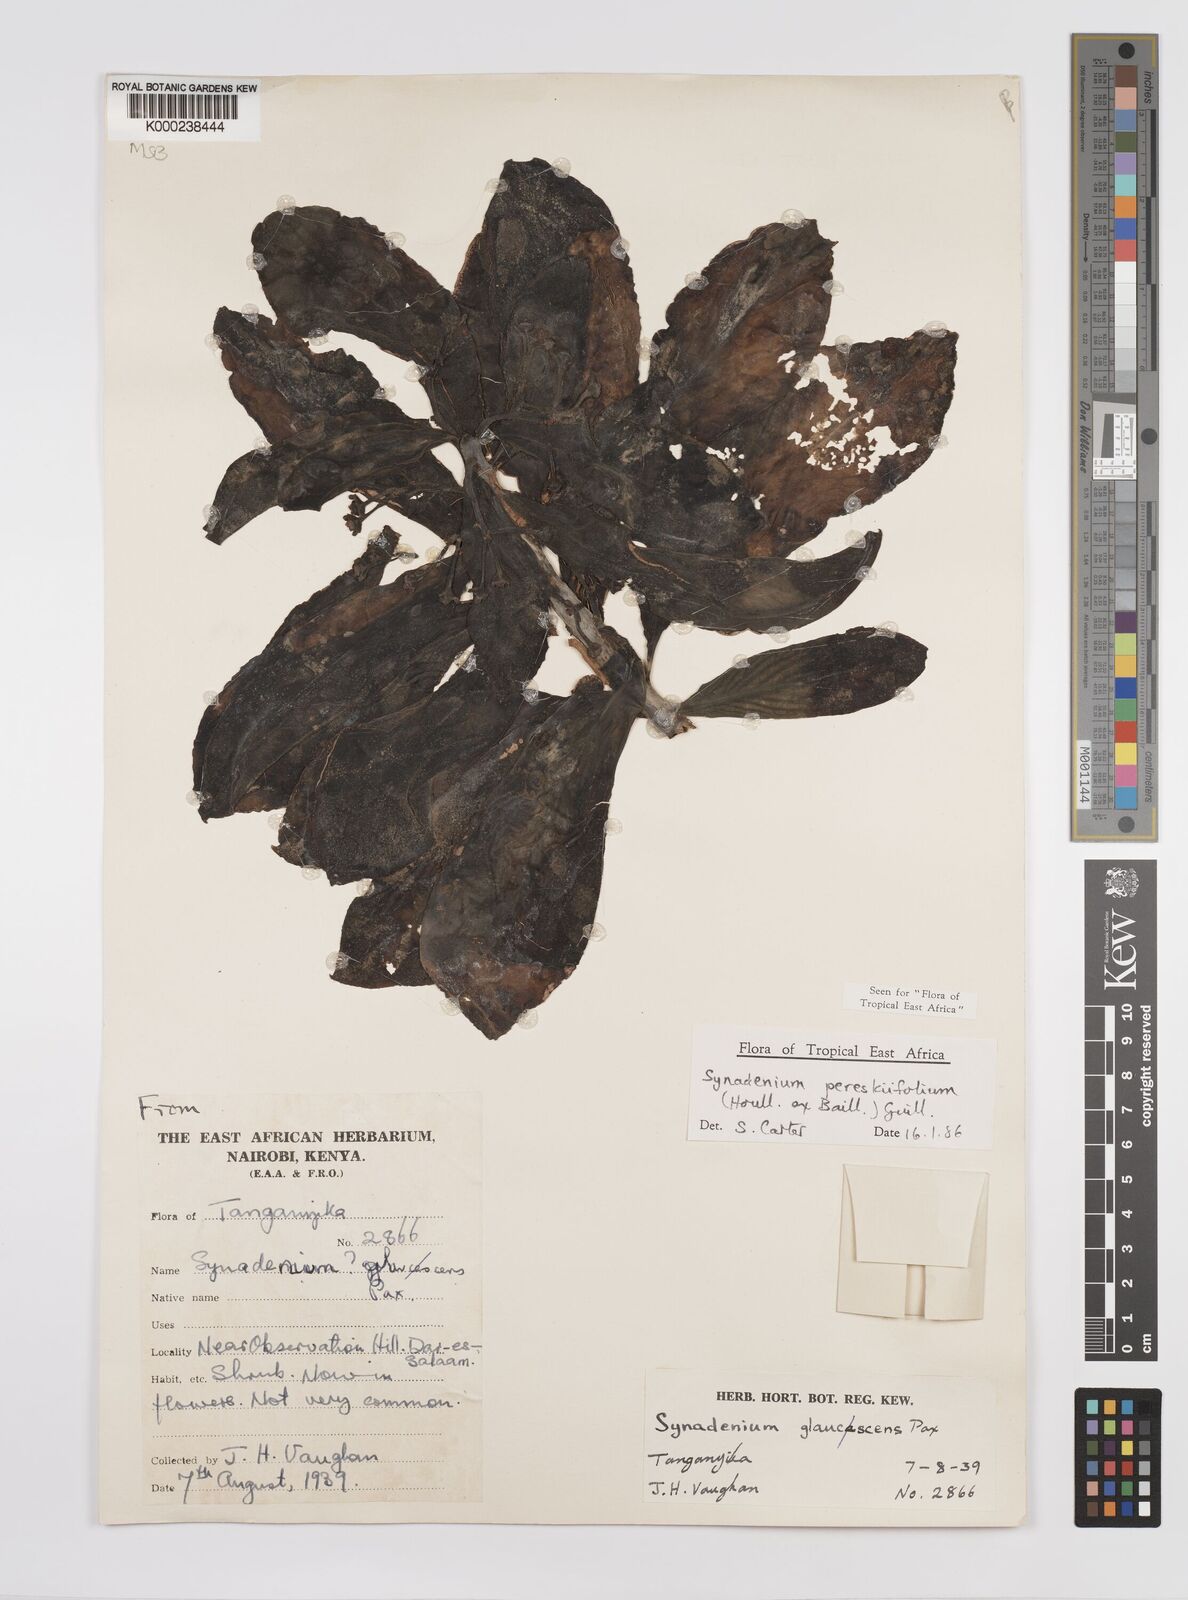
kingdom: Plantae
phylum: Tracheophyta
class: Magnoliopsida
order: Malpighiales
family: Euphorbiaceae
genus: Euphorbia
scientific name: Euphorbia pereskiifolia
